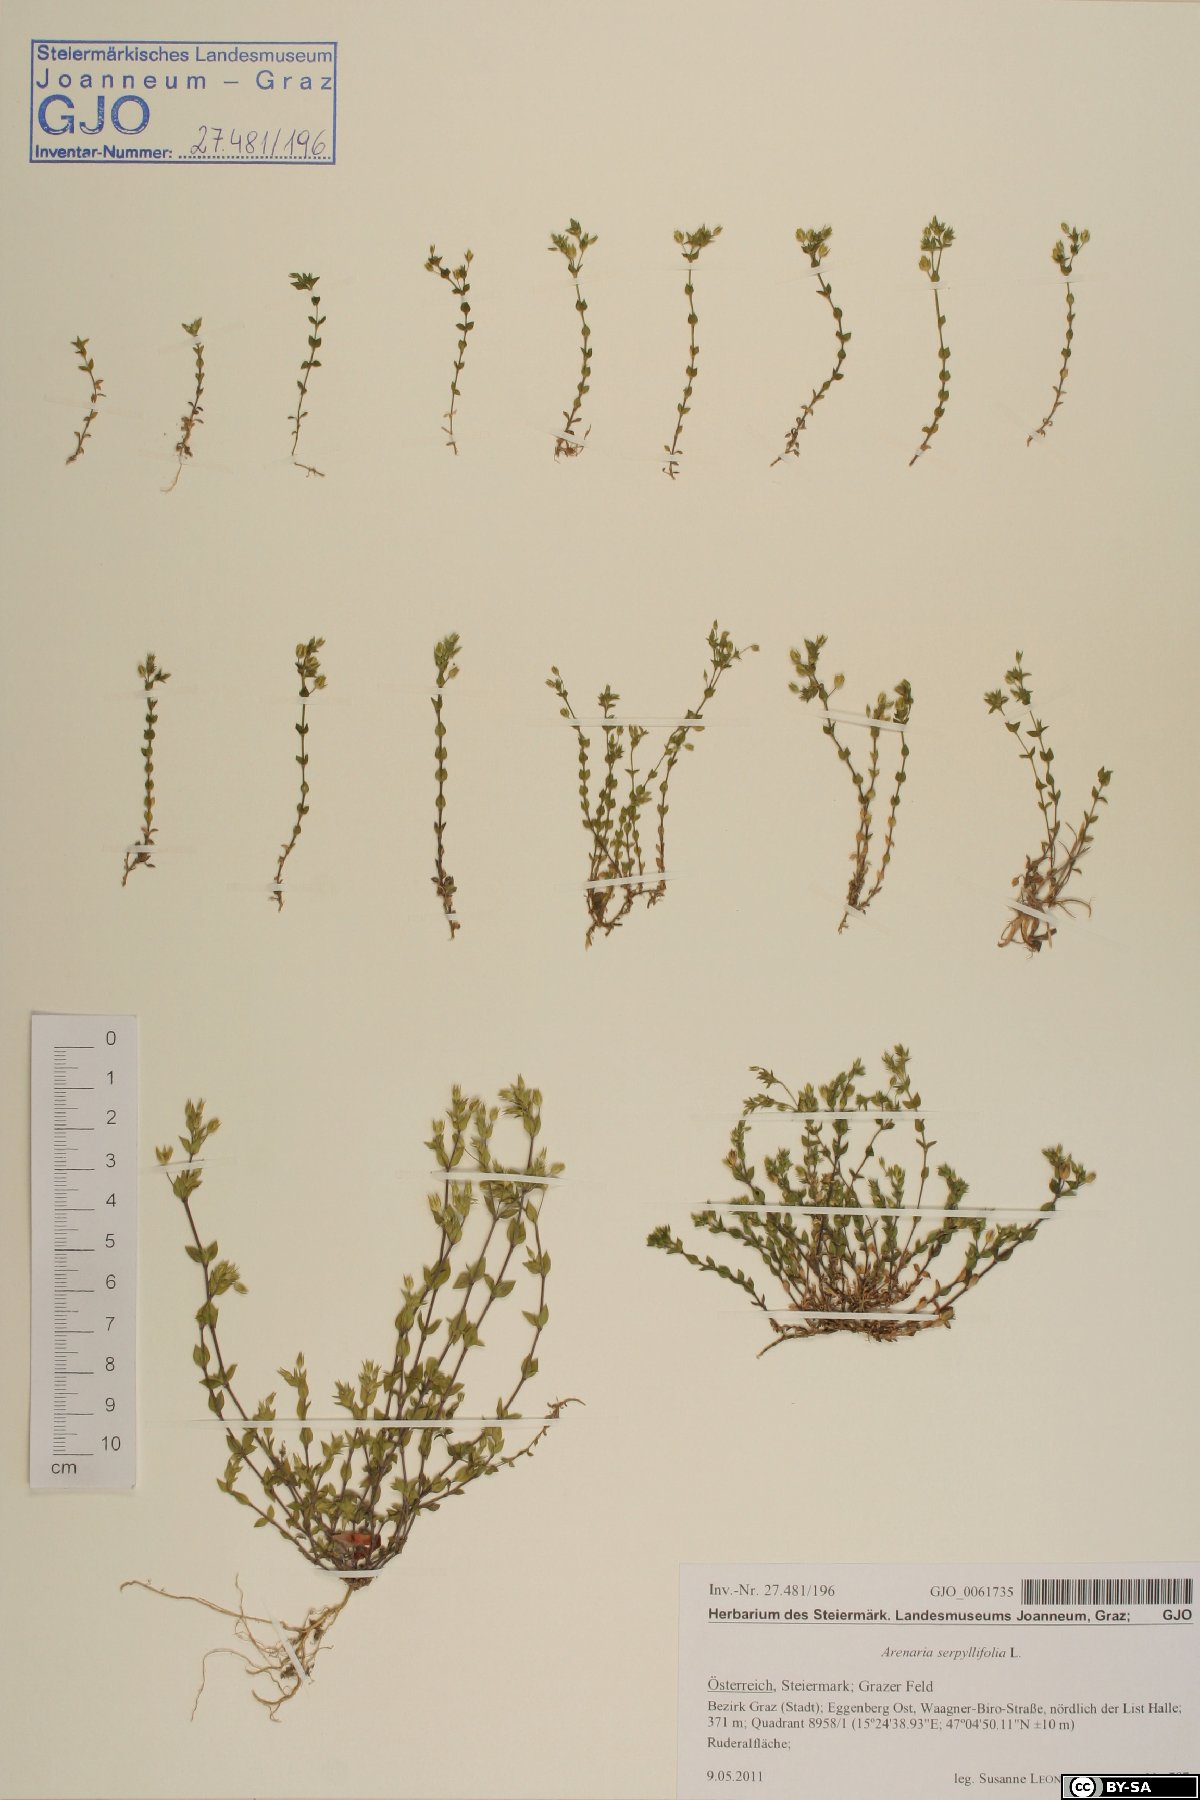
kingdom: Plantae
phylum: Tracheophyta
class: Magnoliopsida
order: Caryophyllales
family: Caryophyllaceae
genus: Arenaria
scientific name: Arenaria serpyllifolia
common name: Thyme-leaved sandwort
